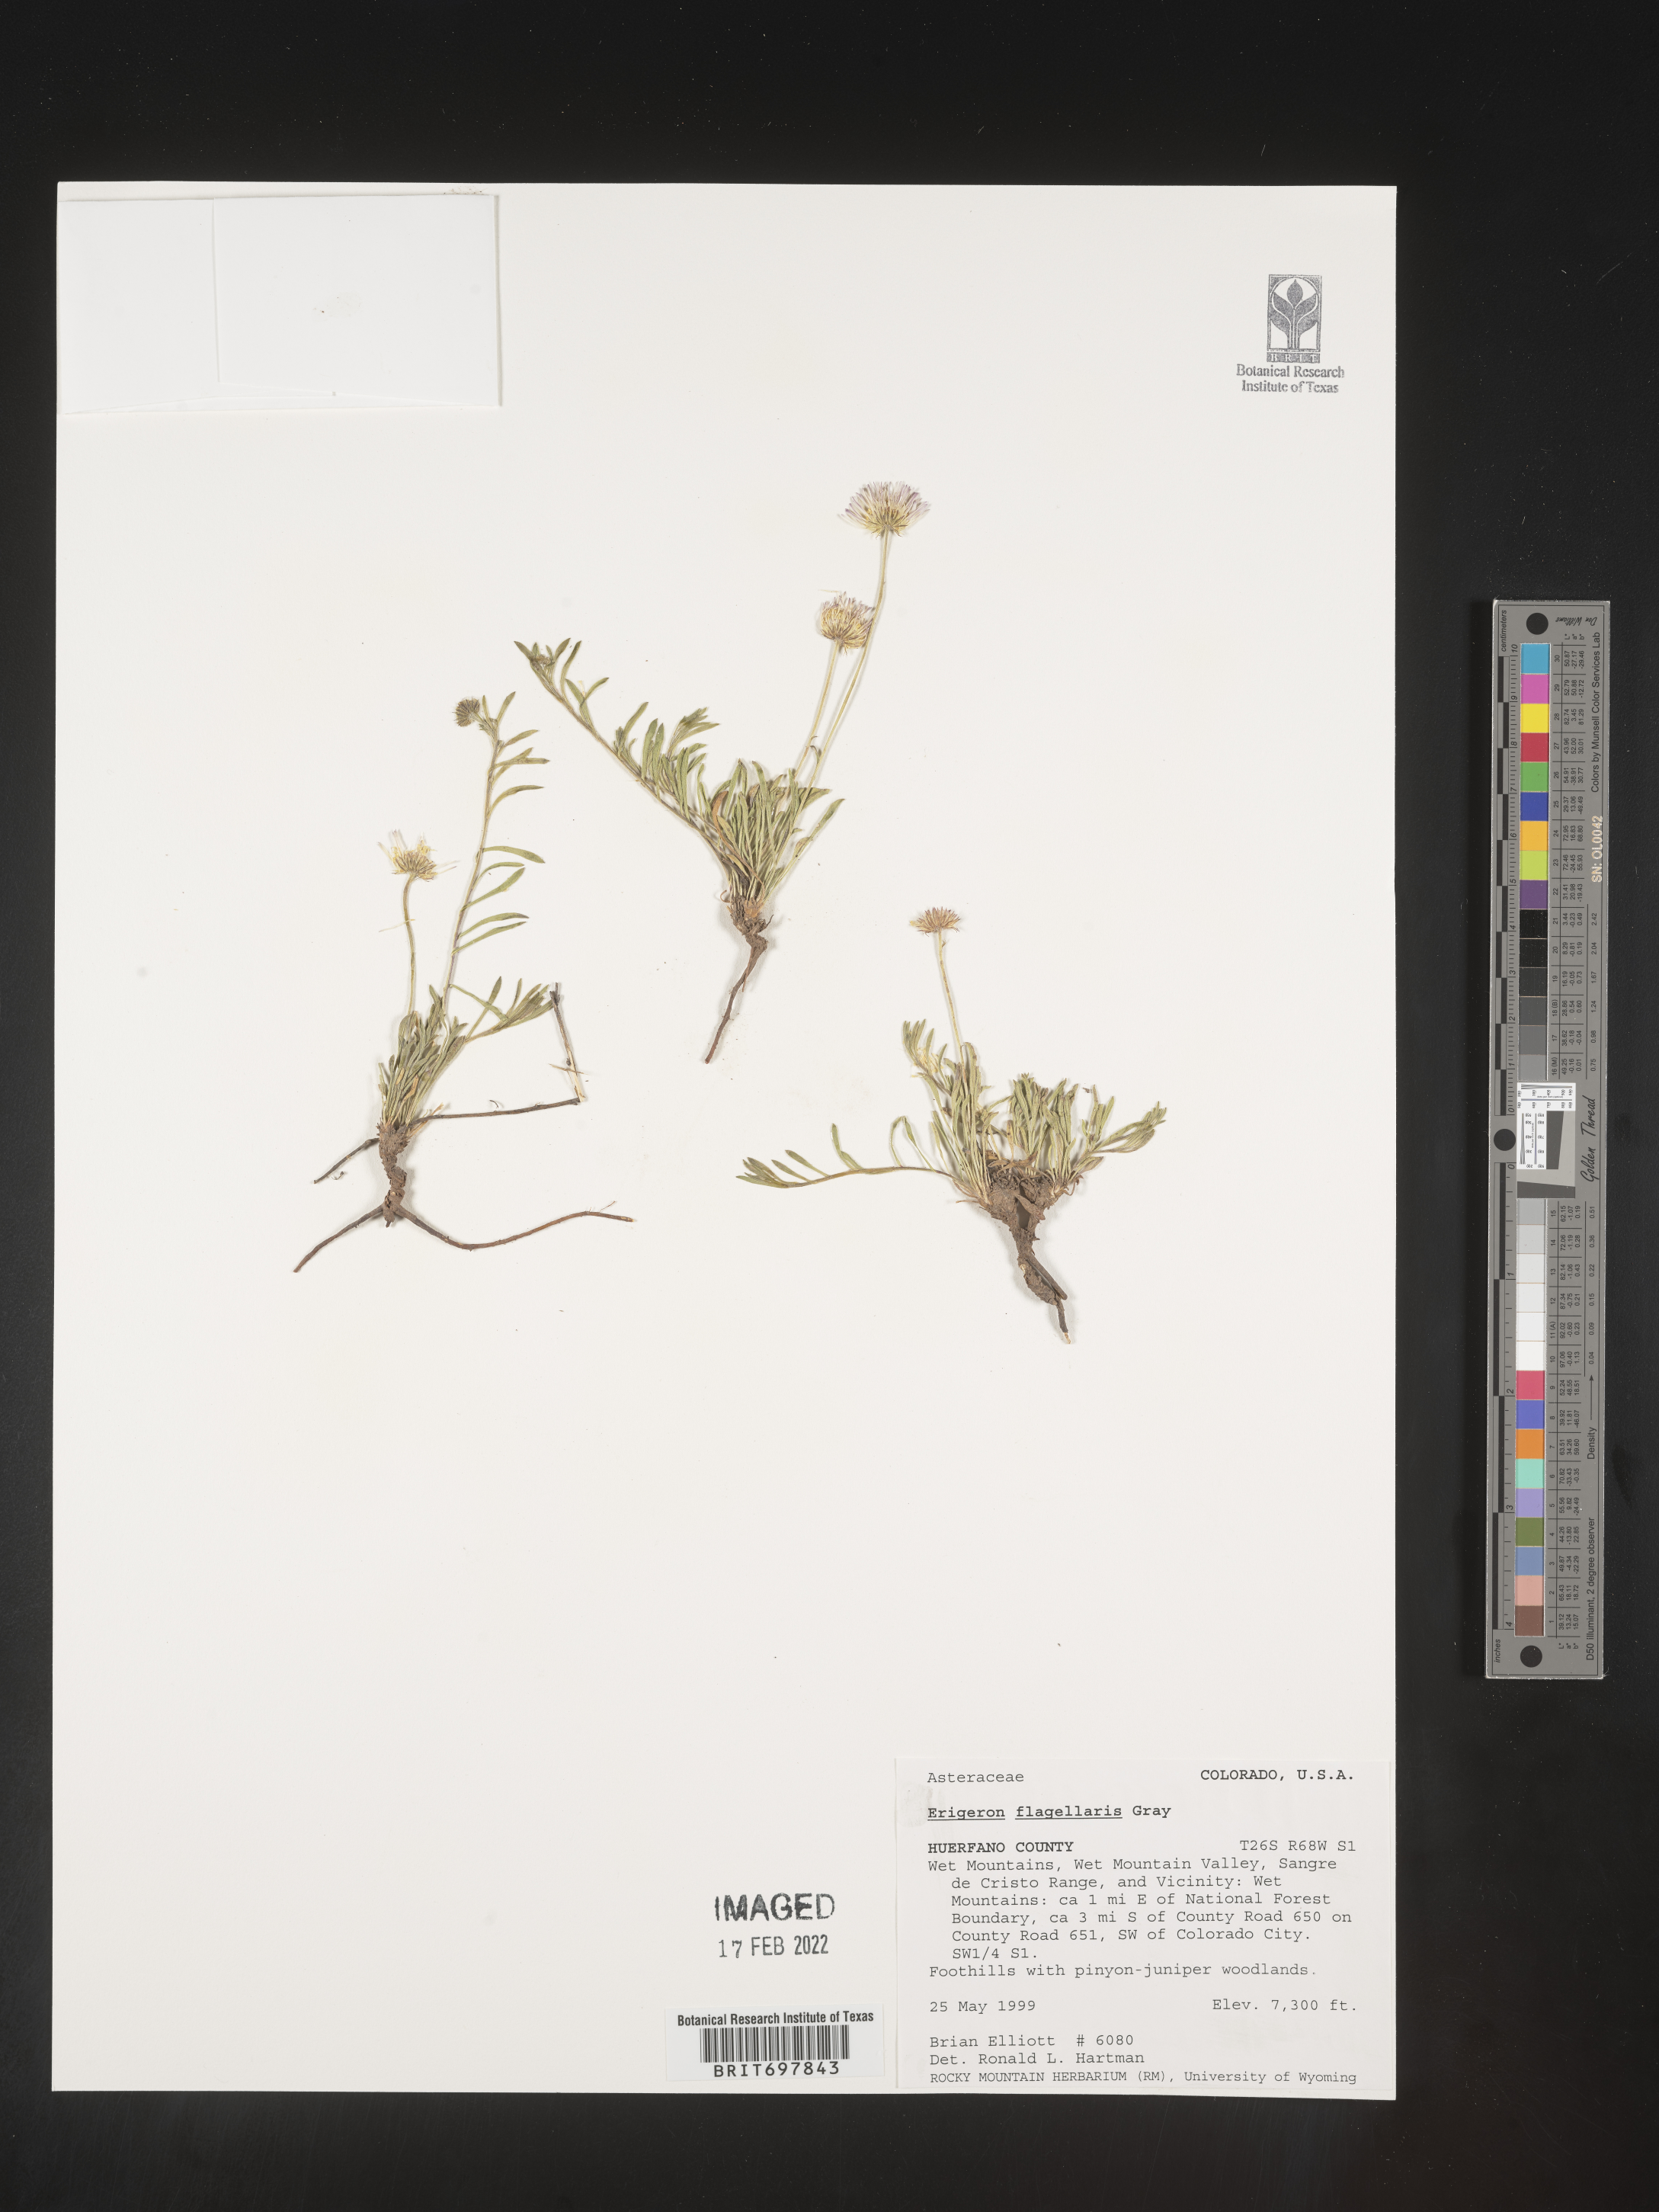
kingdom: Plantae
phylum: Tracheophyta
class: Magnoliopsida
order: Asterales
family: Asteraceae
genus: Erigeron
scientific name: Erigeron flagellaris
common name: Running fleabane
